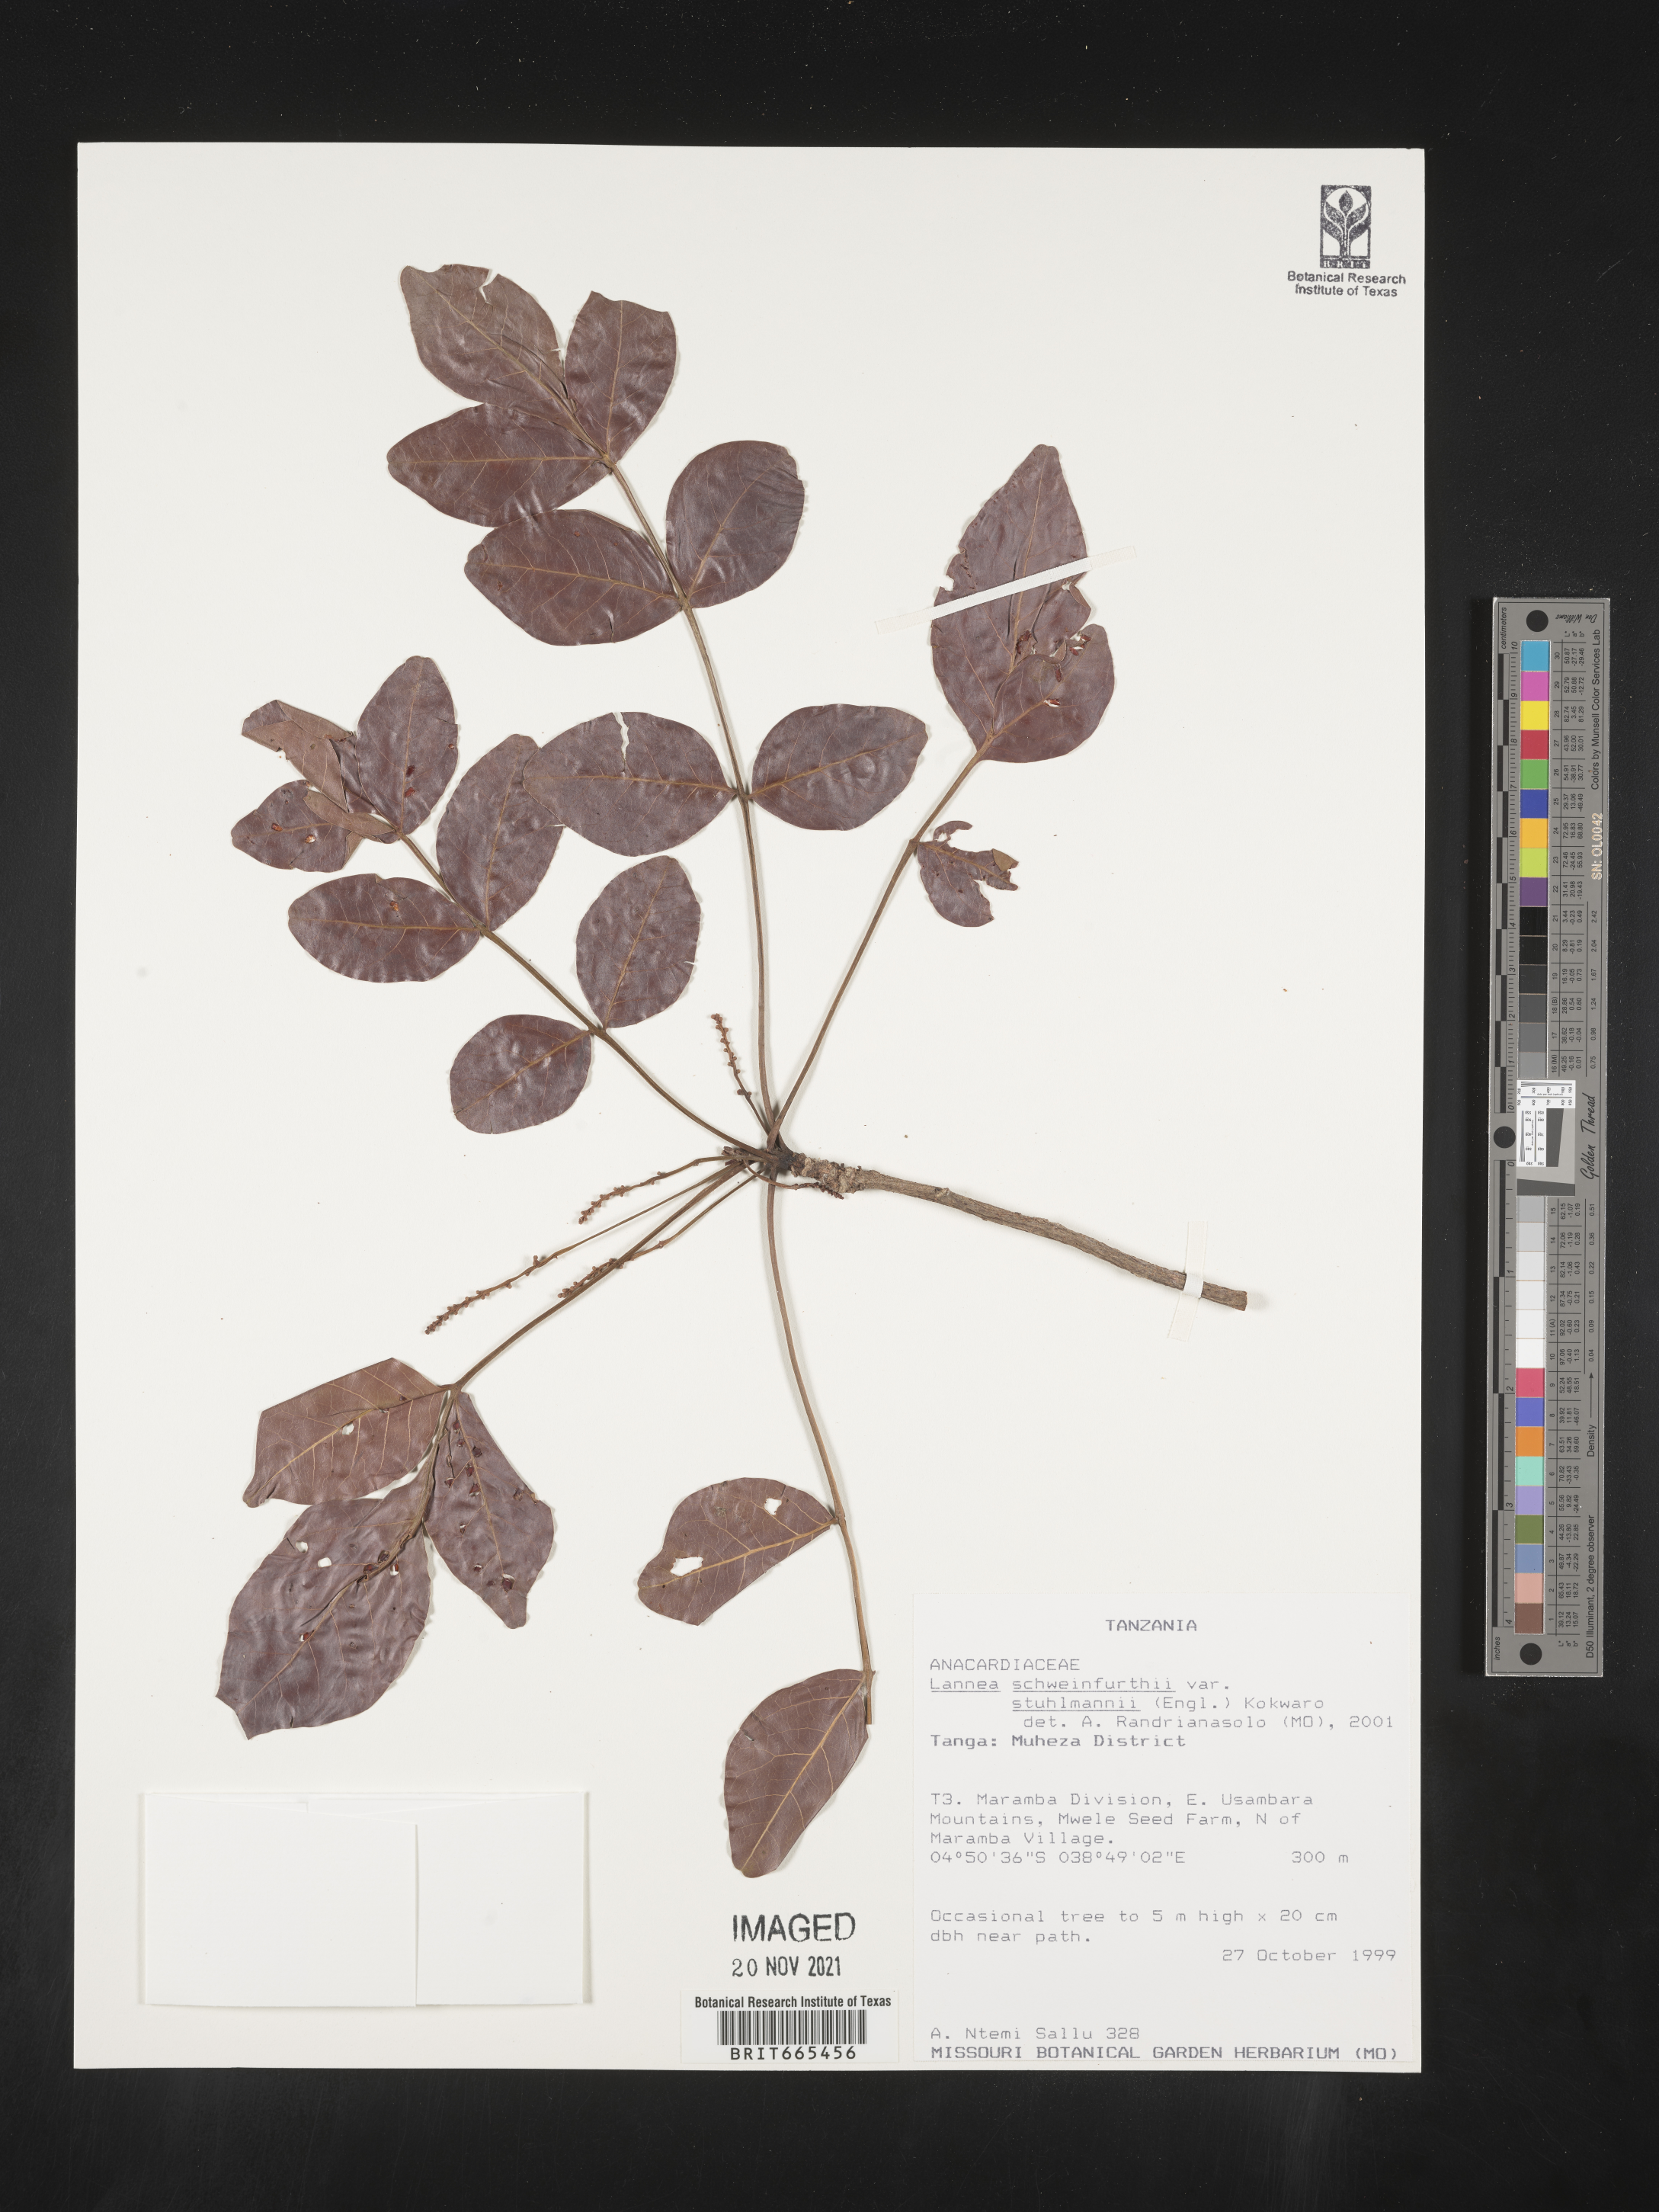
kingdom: Plantae
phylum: Tracheophyta
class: Magnoliopsida
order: Sapindales
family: Anacardiaceae
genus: Lannea
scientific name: Lannea schweinfurthii
